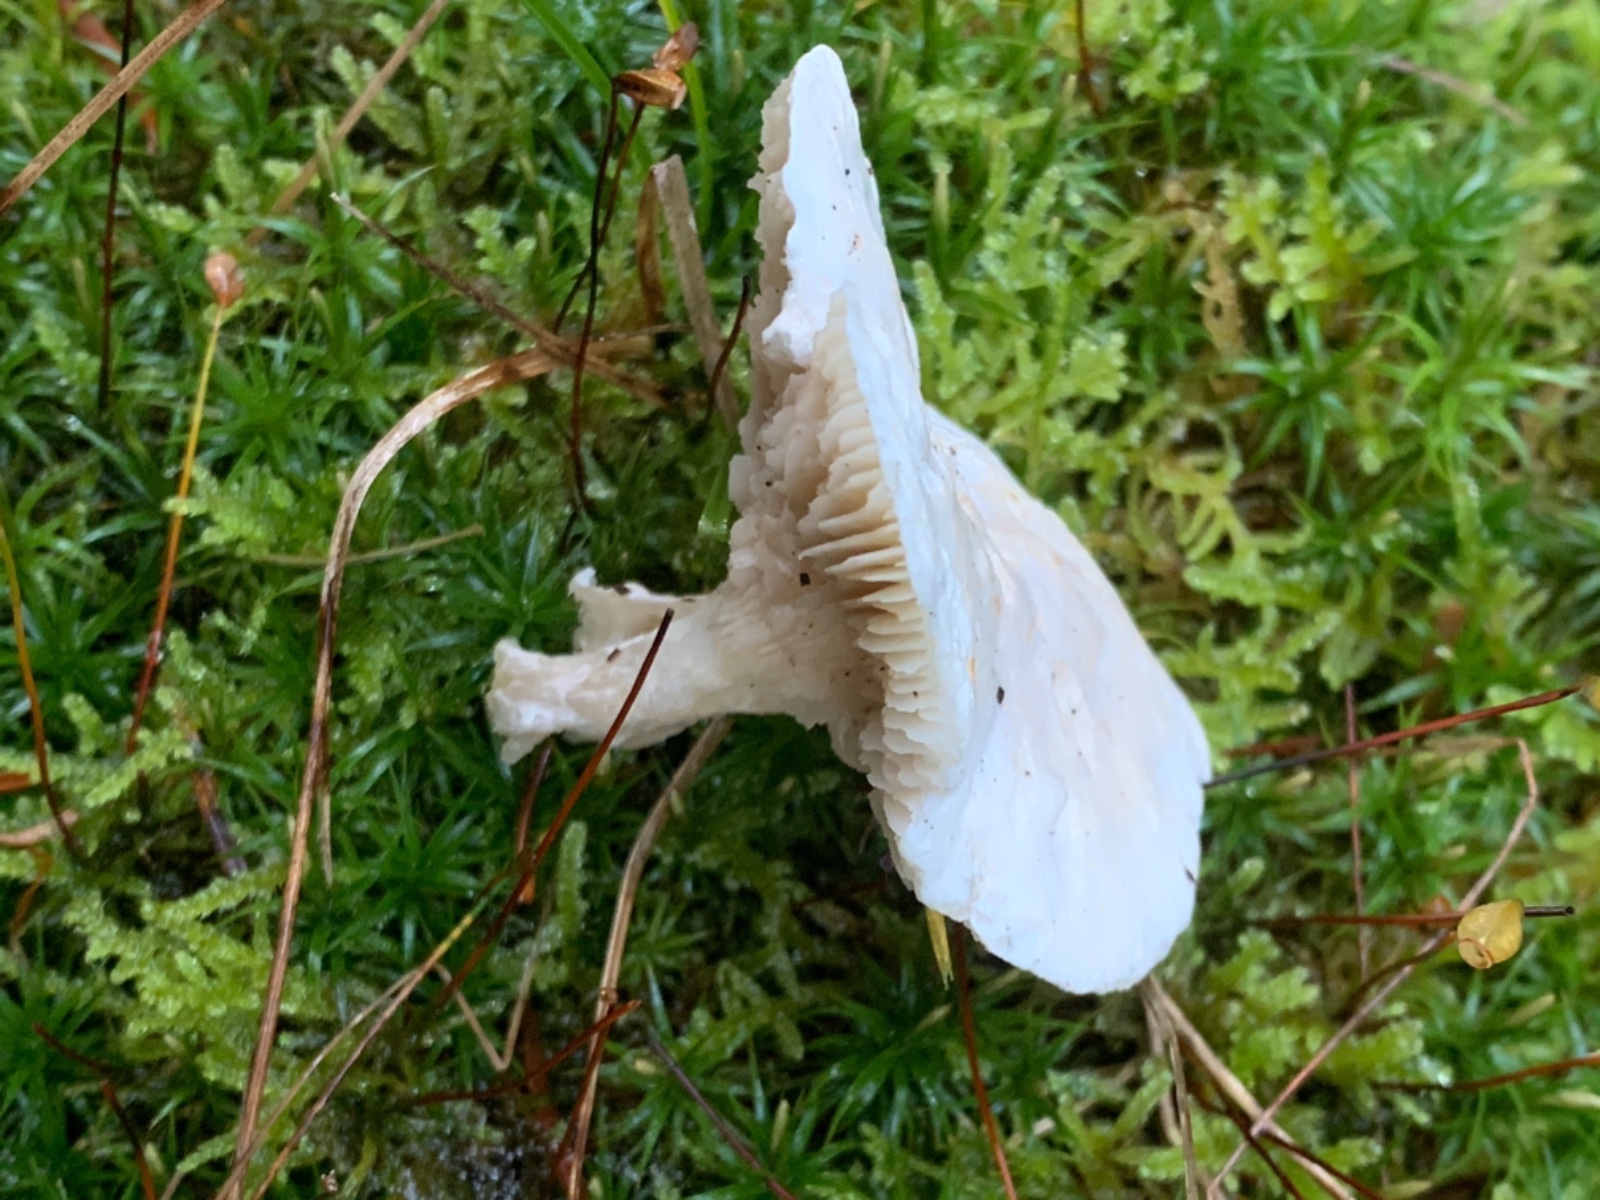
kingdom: Fungi
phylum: Basidiomycota
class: Agaricomycetes
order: Agaricales
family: Entolomataceae
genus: Clitopilus
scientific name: Clitopilus prunulus
